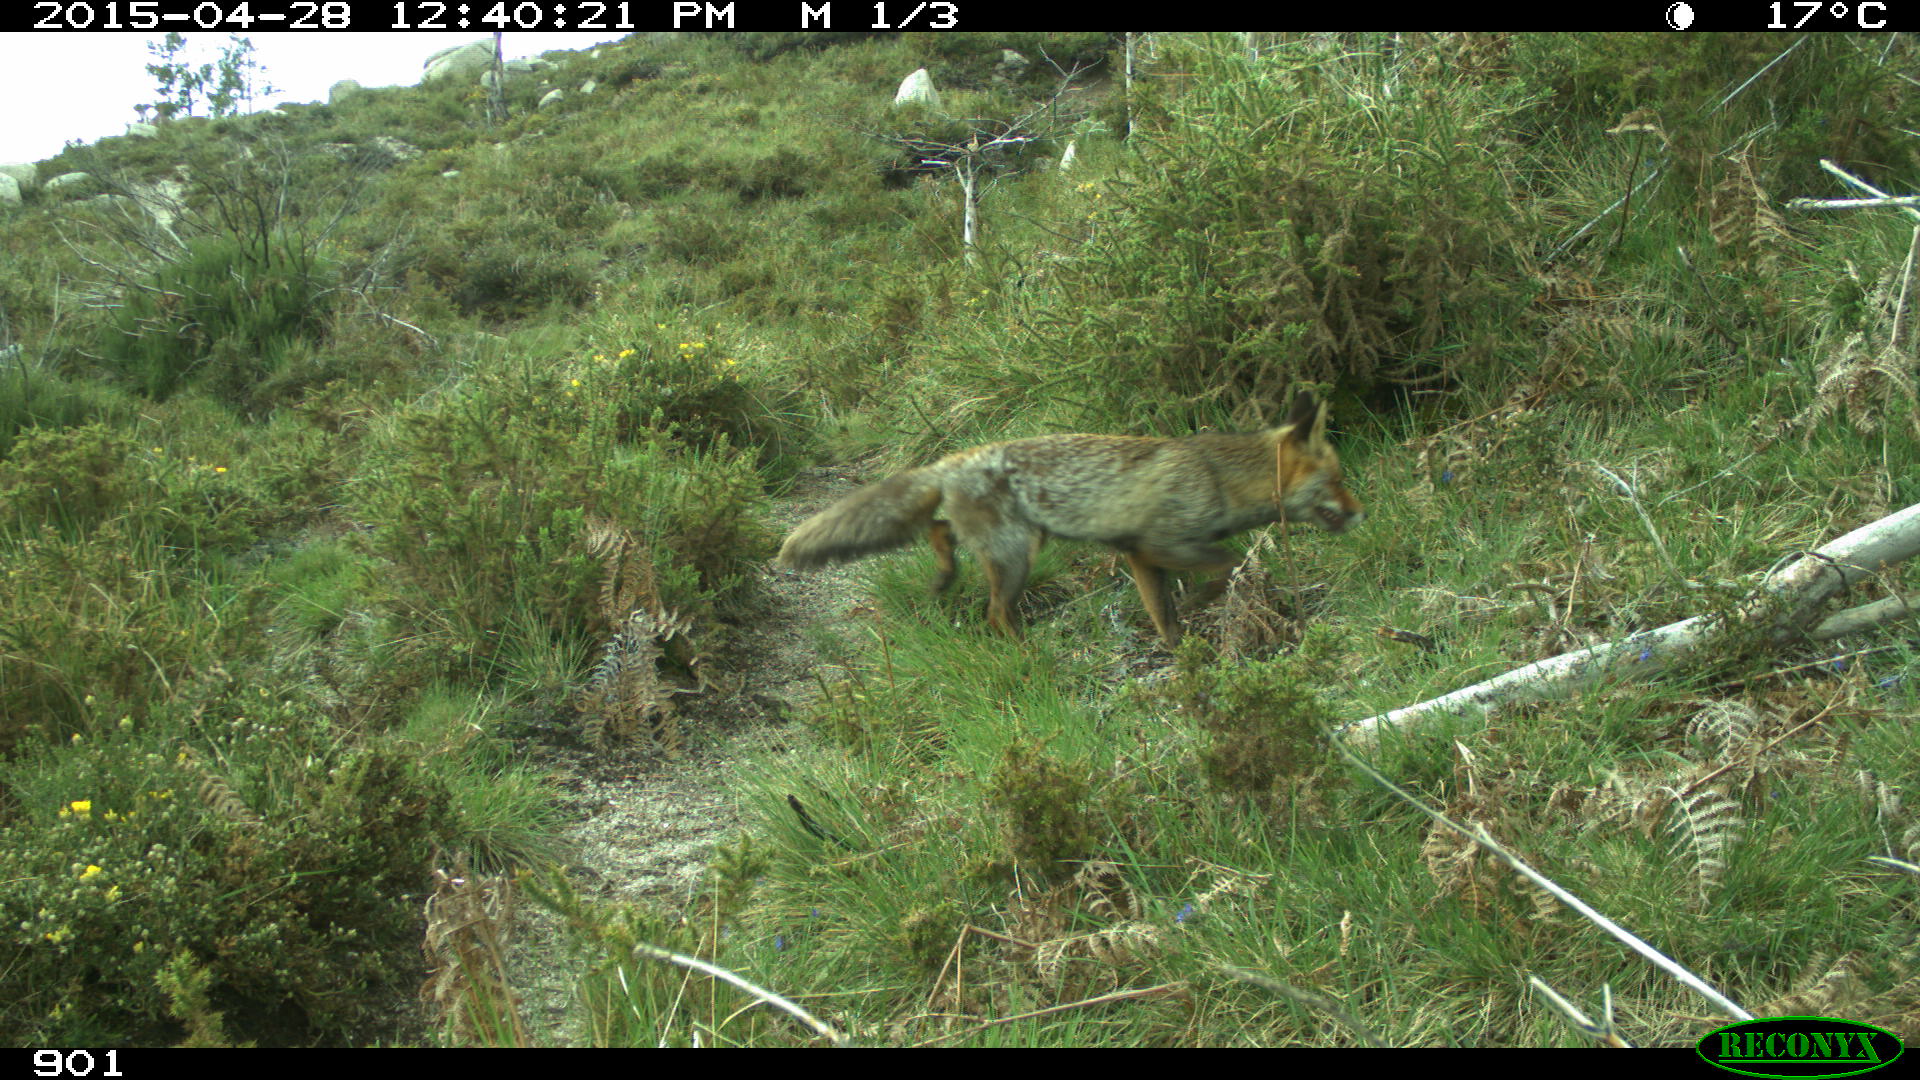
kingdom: Animalia
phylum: Chordata
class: Mammalia
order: Carnivora
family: Canidae
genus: Vulpes
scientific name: Vulpes vulpes
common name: Red fox
